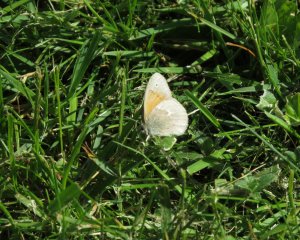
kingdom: Animalia
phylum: Arthropoda
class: Insecta
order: Lepidoptera
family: Nymphalidae
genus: Coenonympha
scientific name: Coenonympha tullia
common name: Large Heath
